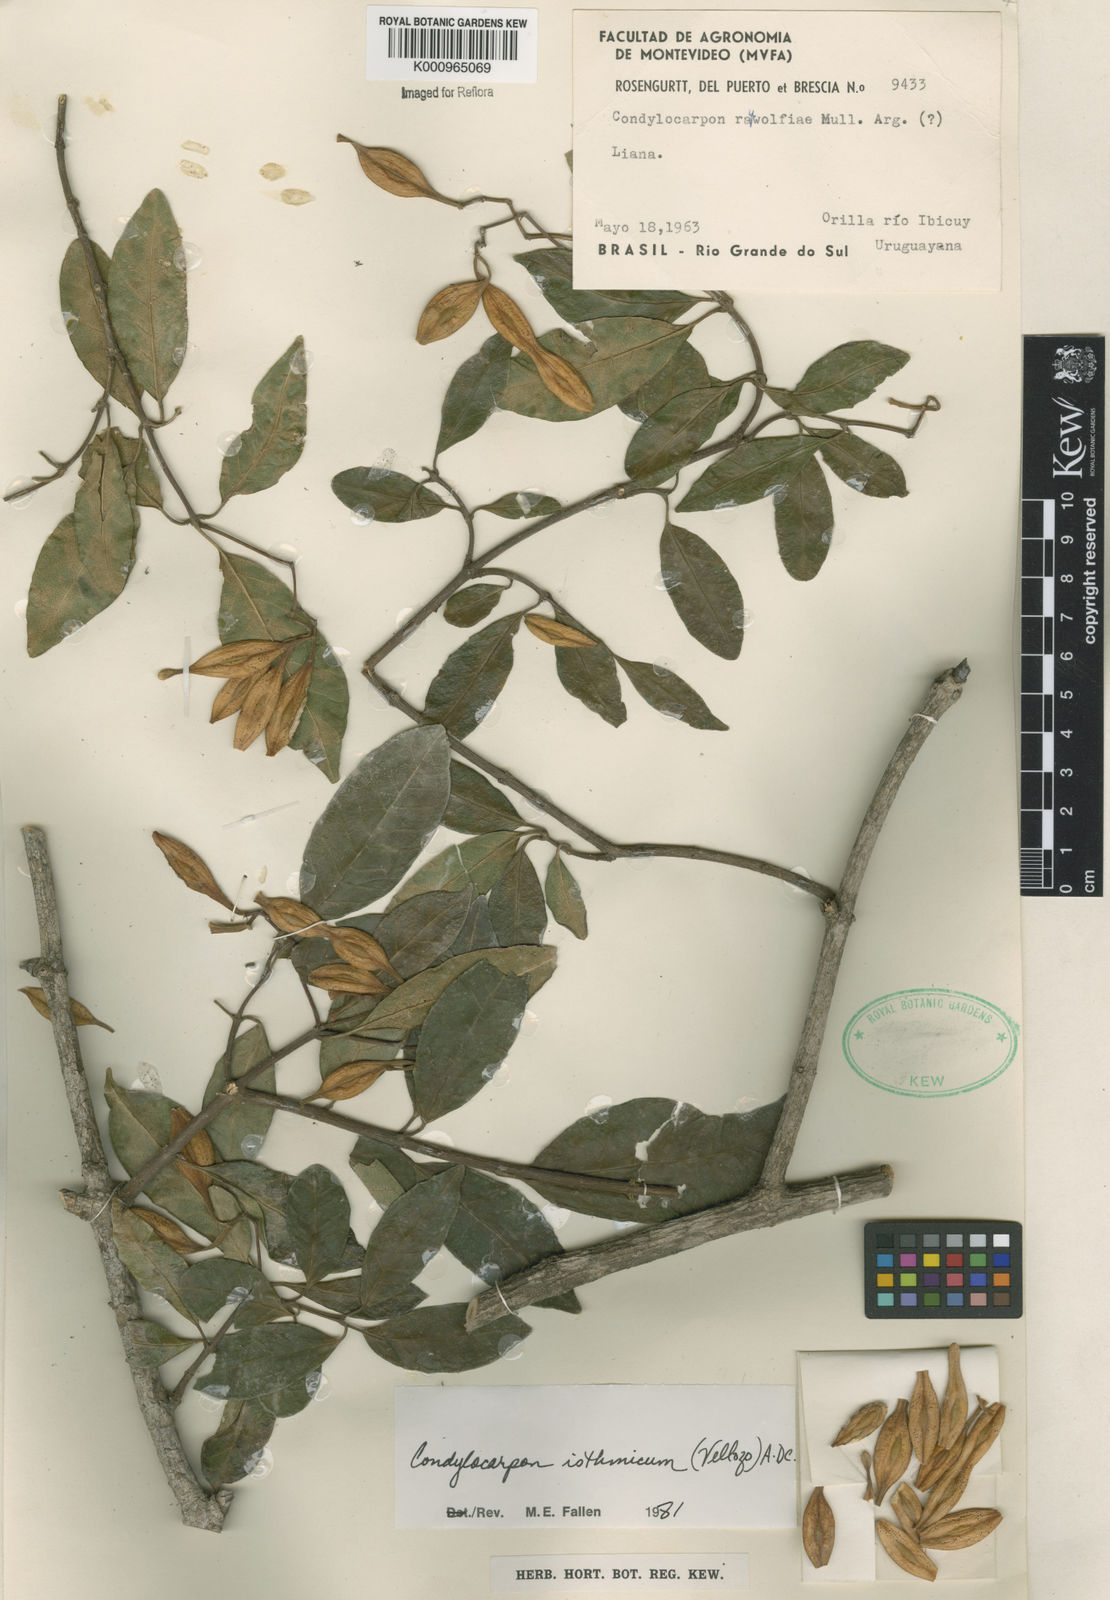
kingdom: Plantae
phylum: Tracheophyta
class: Magnoliopsida
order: Gentianales
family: Apocynaceae
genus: Condylocarpon
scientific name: Condylocarpon isthmicum
